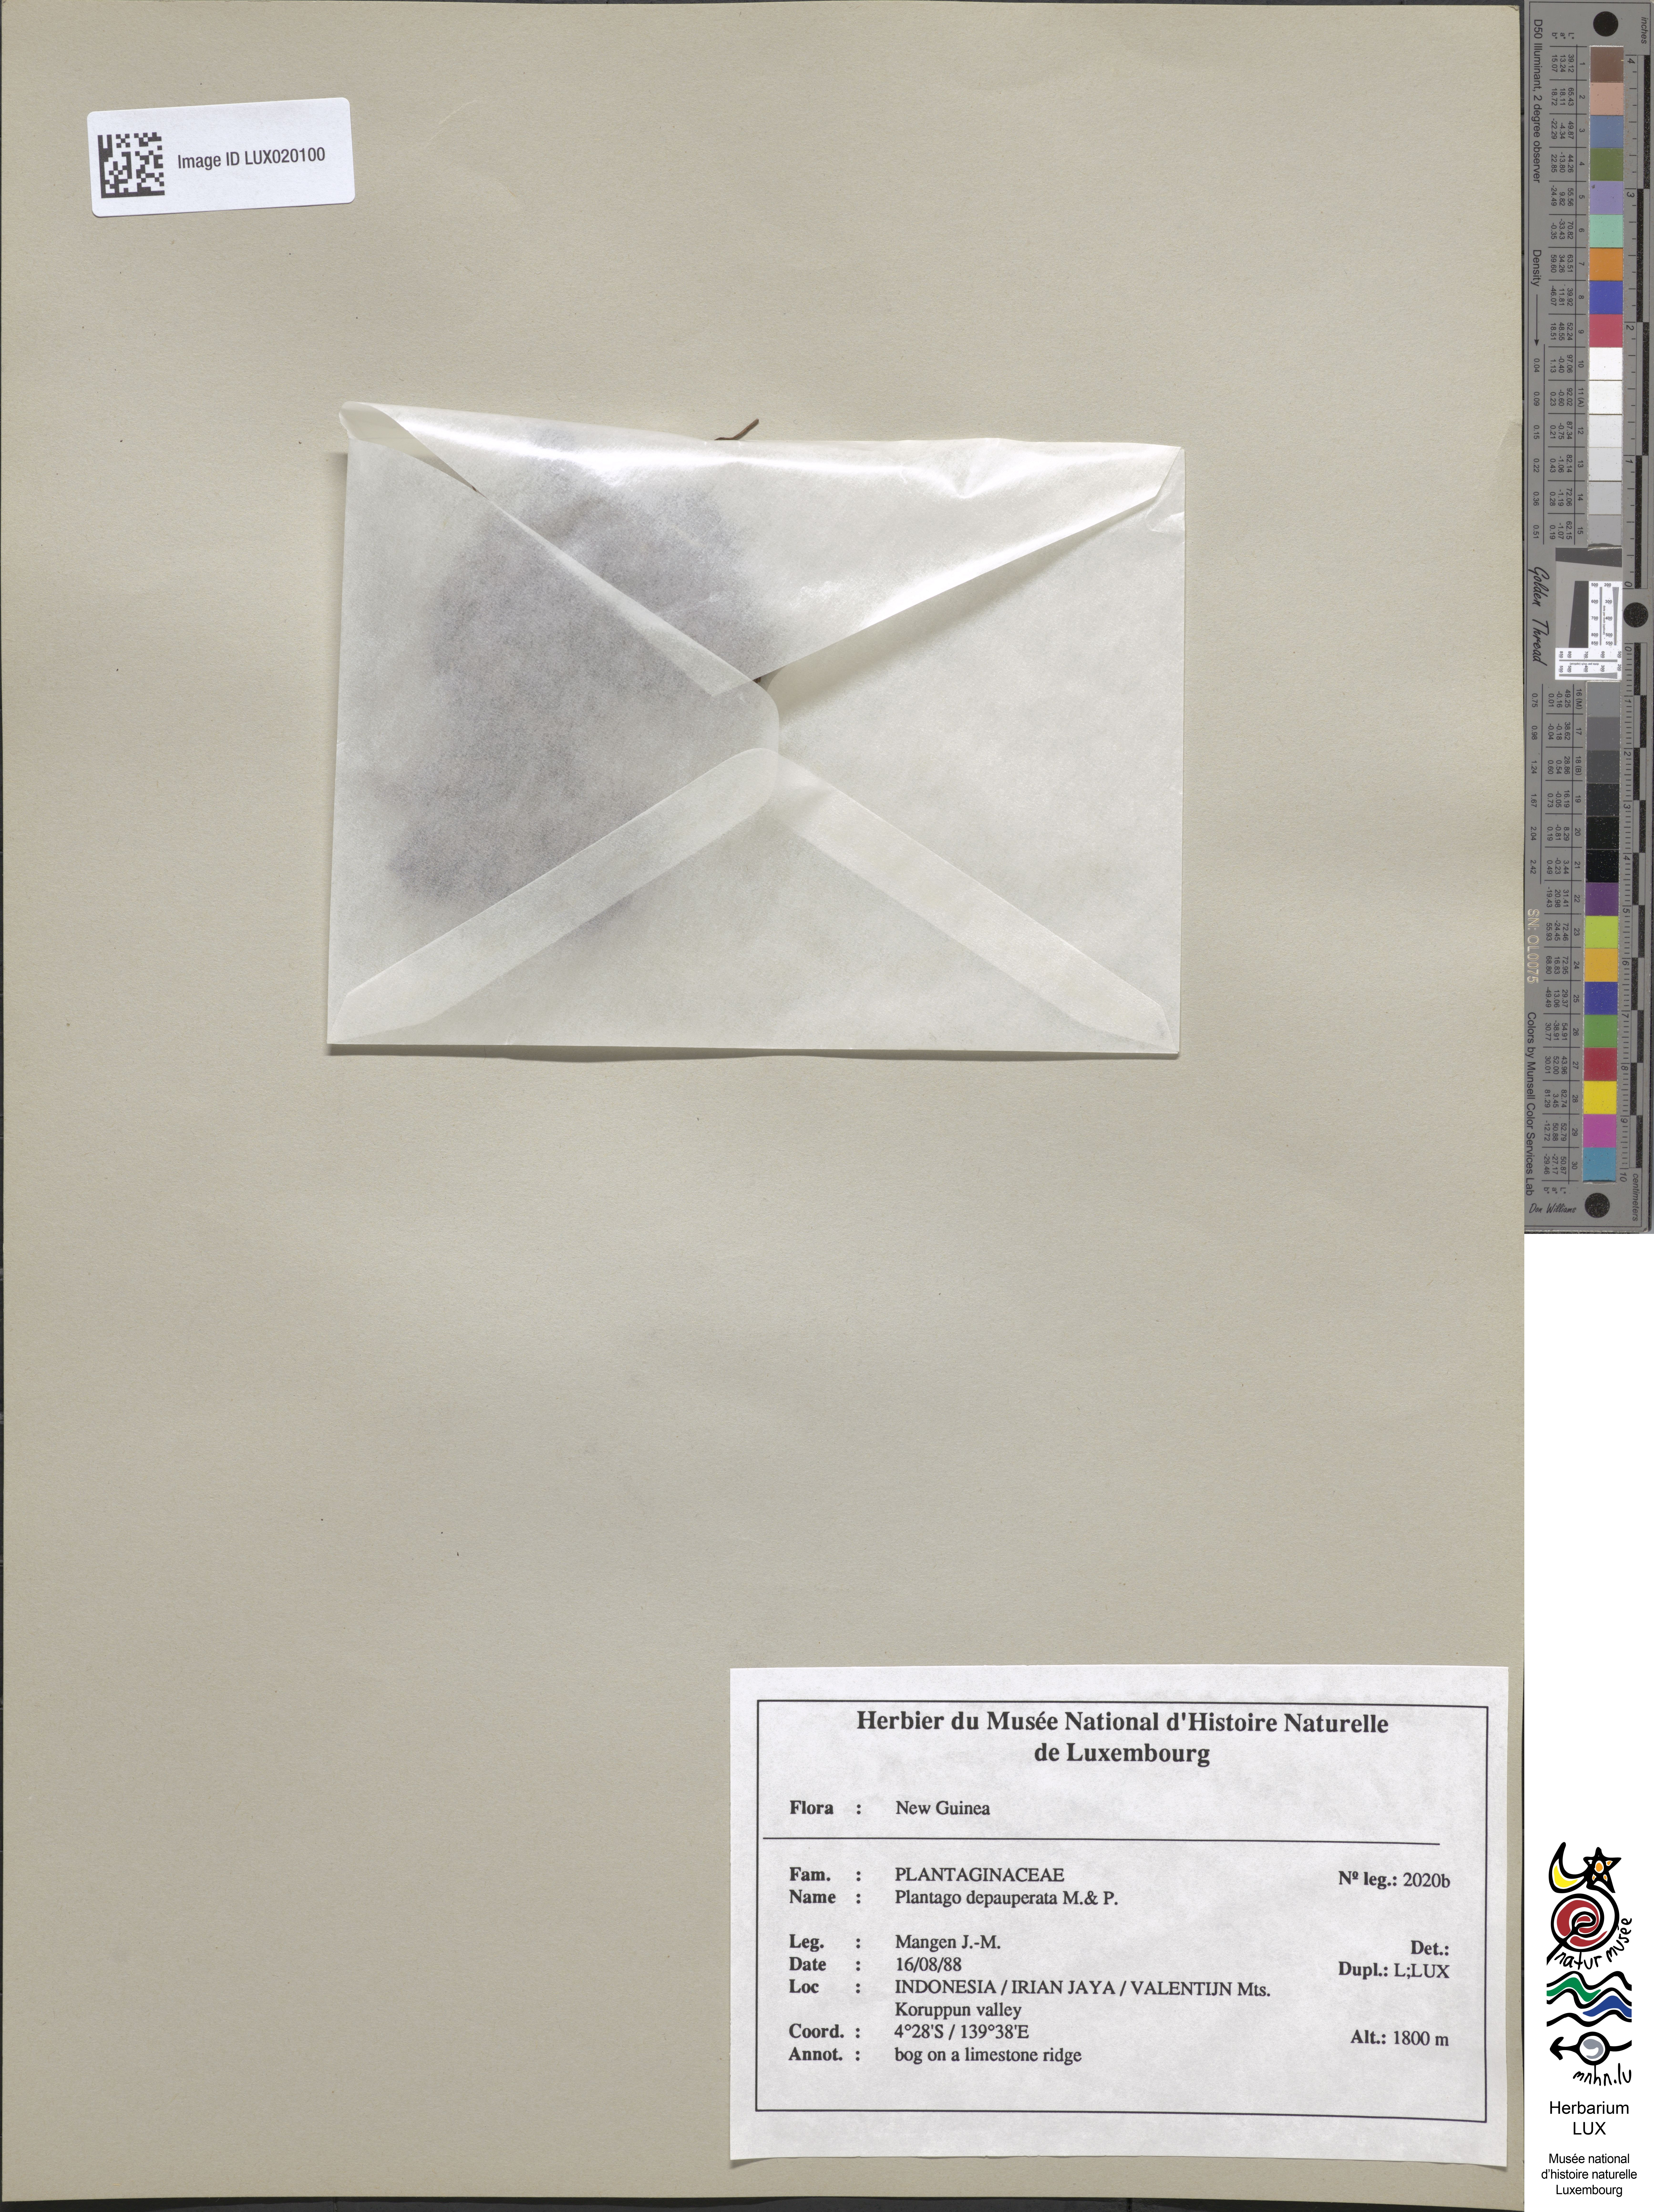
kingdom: Plantae
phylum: Tracheophyta
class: Magnoliopsida
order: Lamiales
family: Plantaginaceae
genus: Plantago
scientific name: Plantago depauperata
